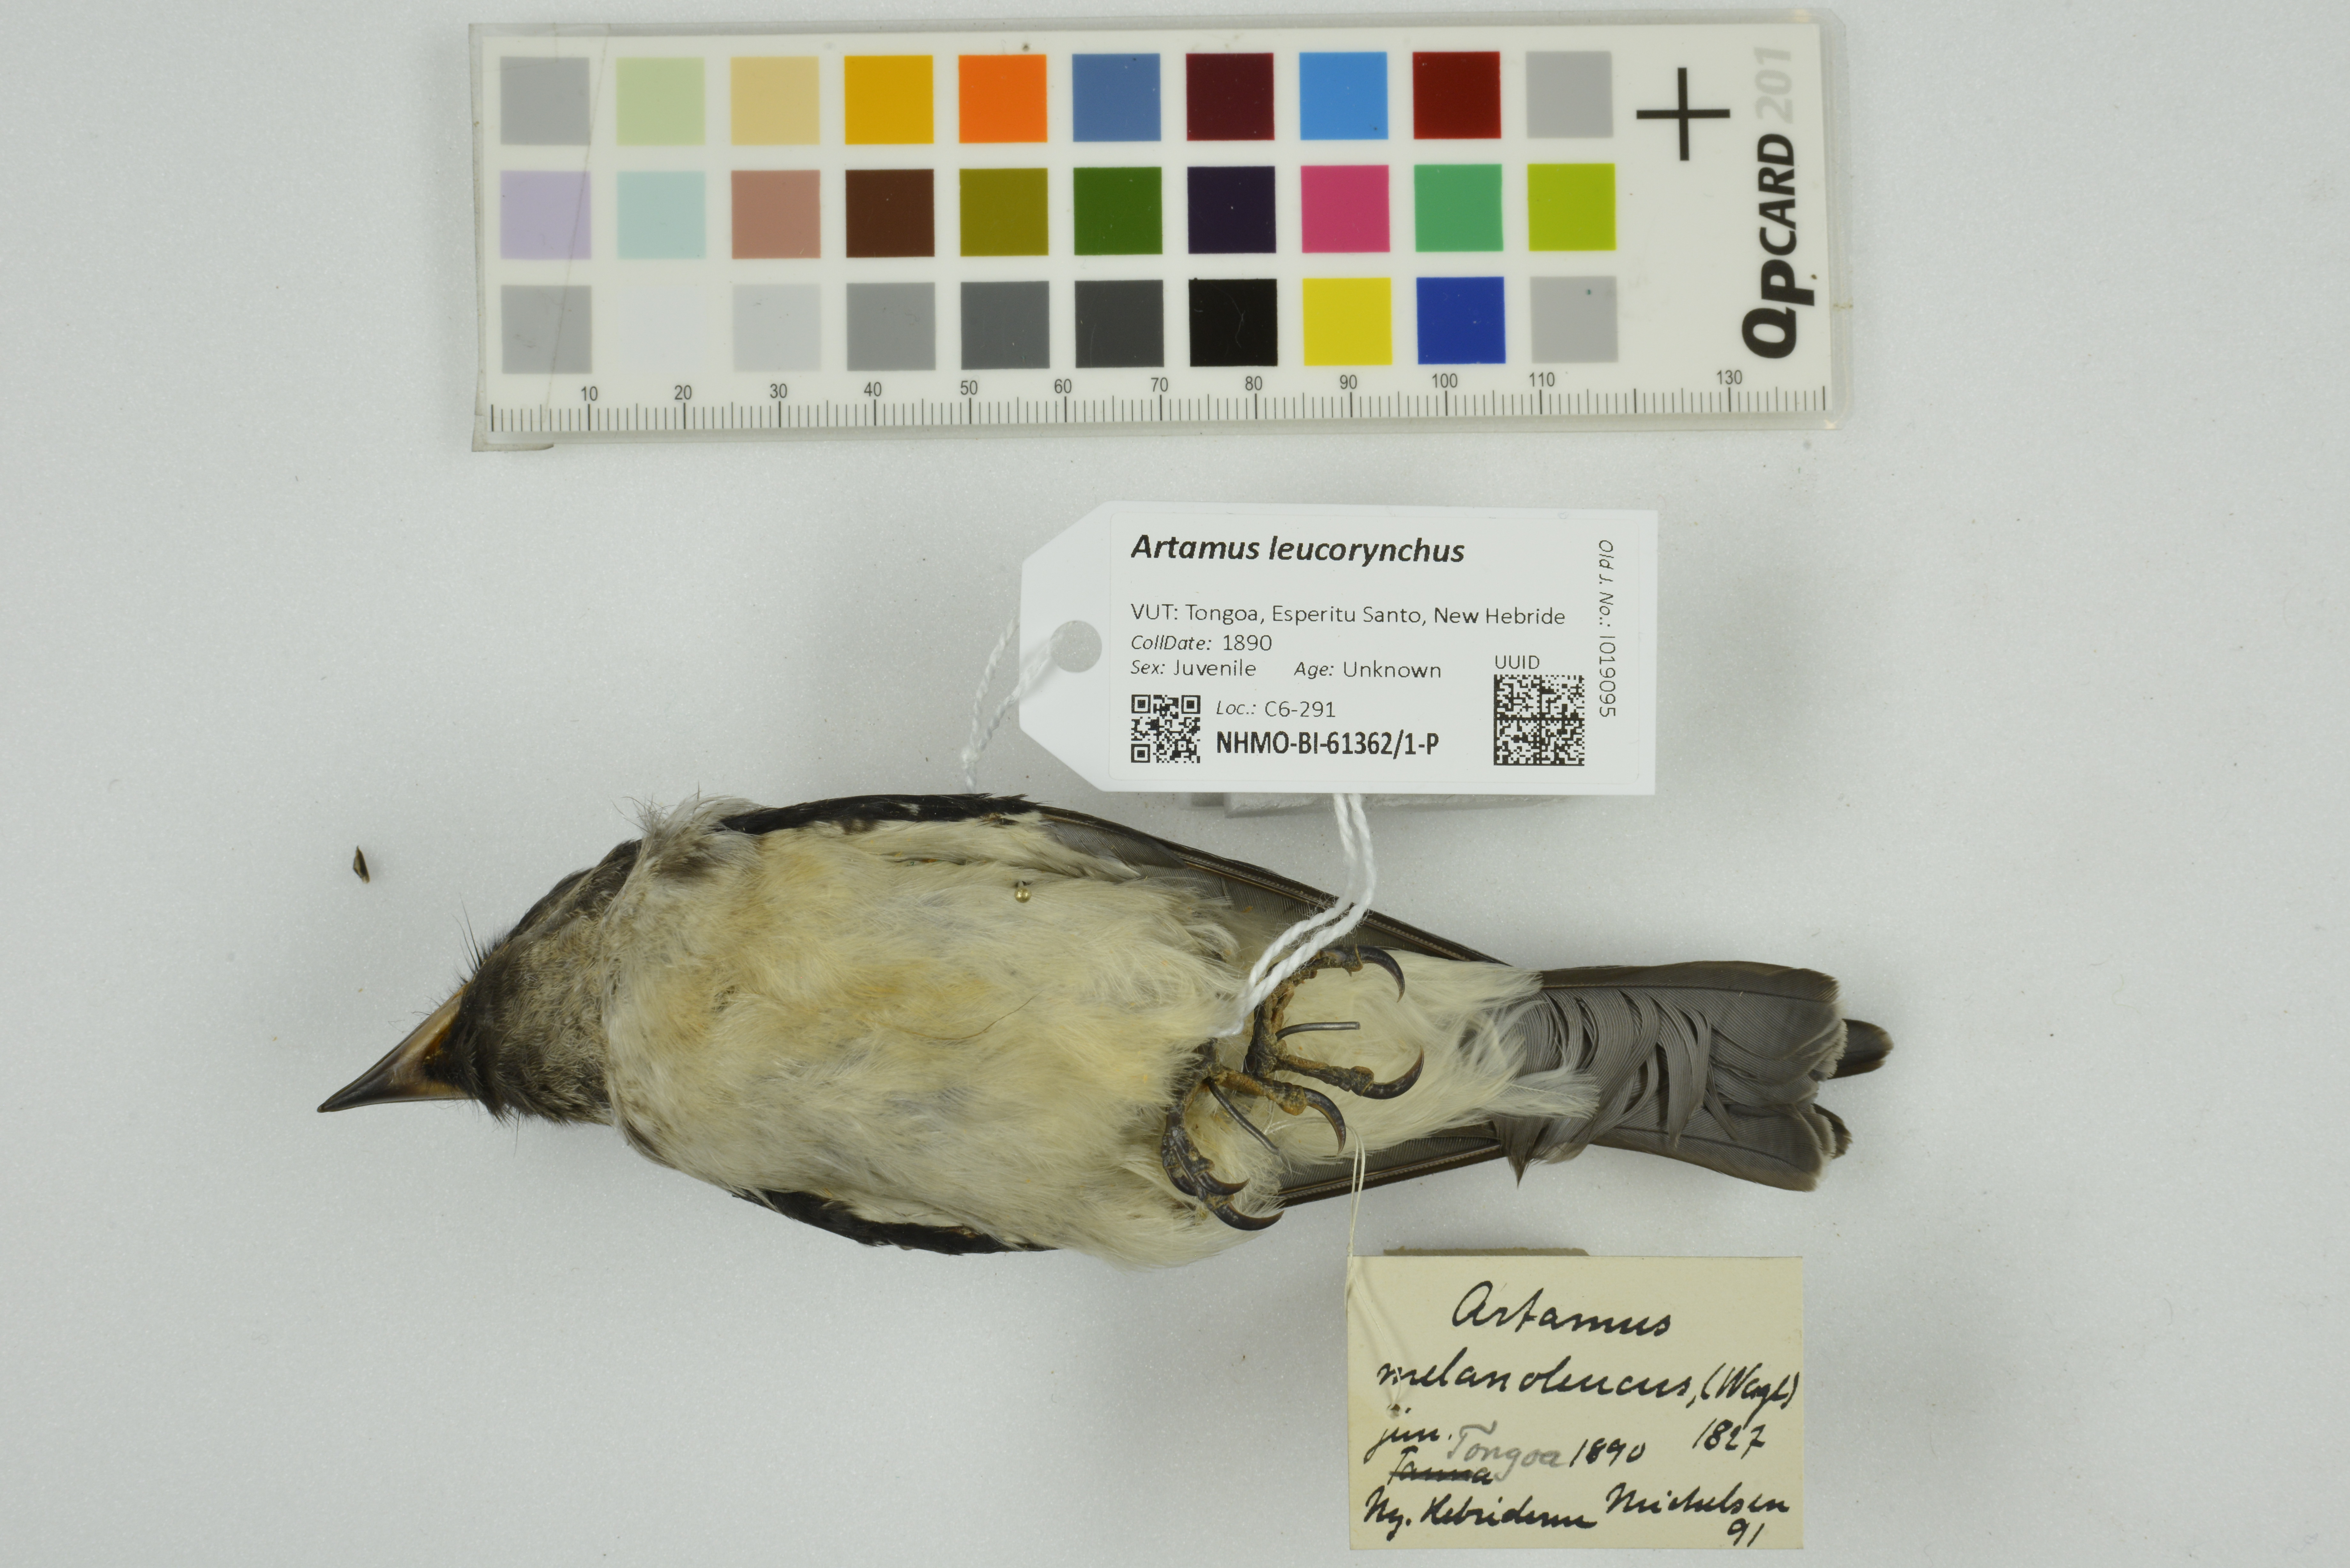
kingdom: Animalia
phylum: Chordata
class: Aves
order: Passeriformes
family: Artamidae
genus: Artamus
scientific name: Artamus leucoryn
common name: White-breasted woodswallow
